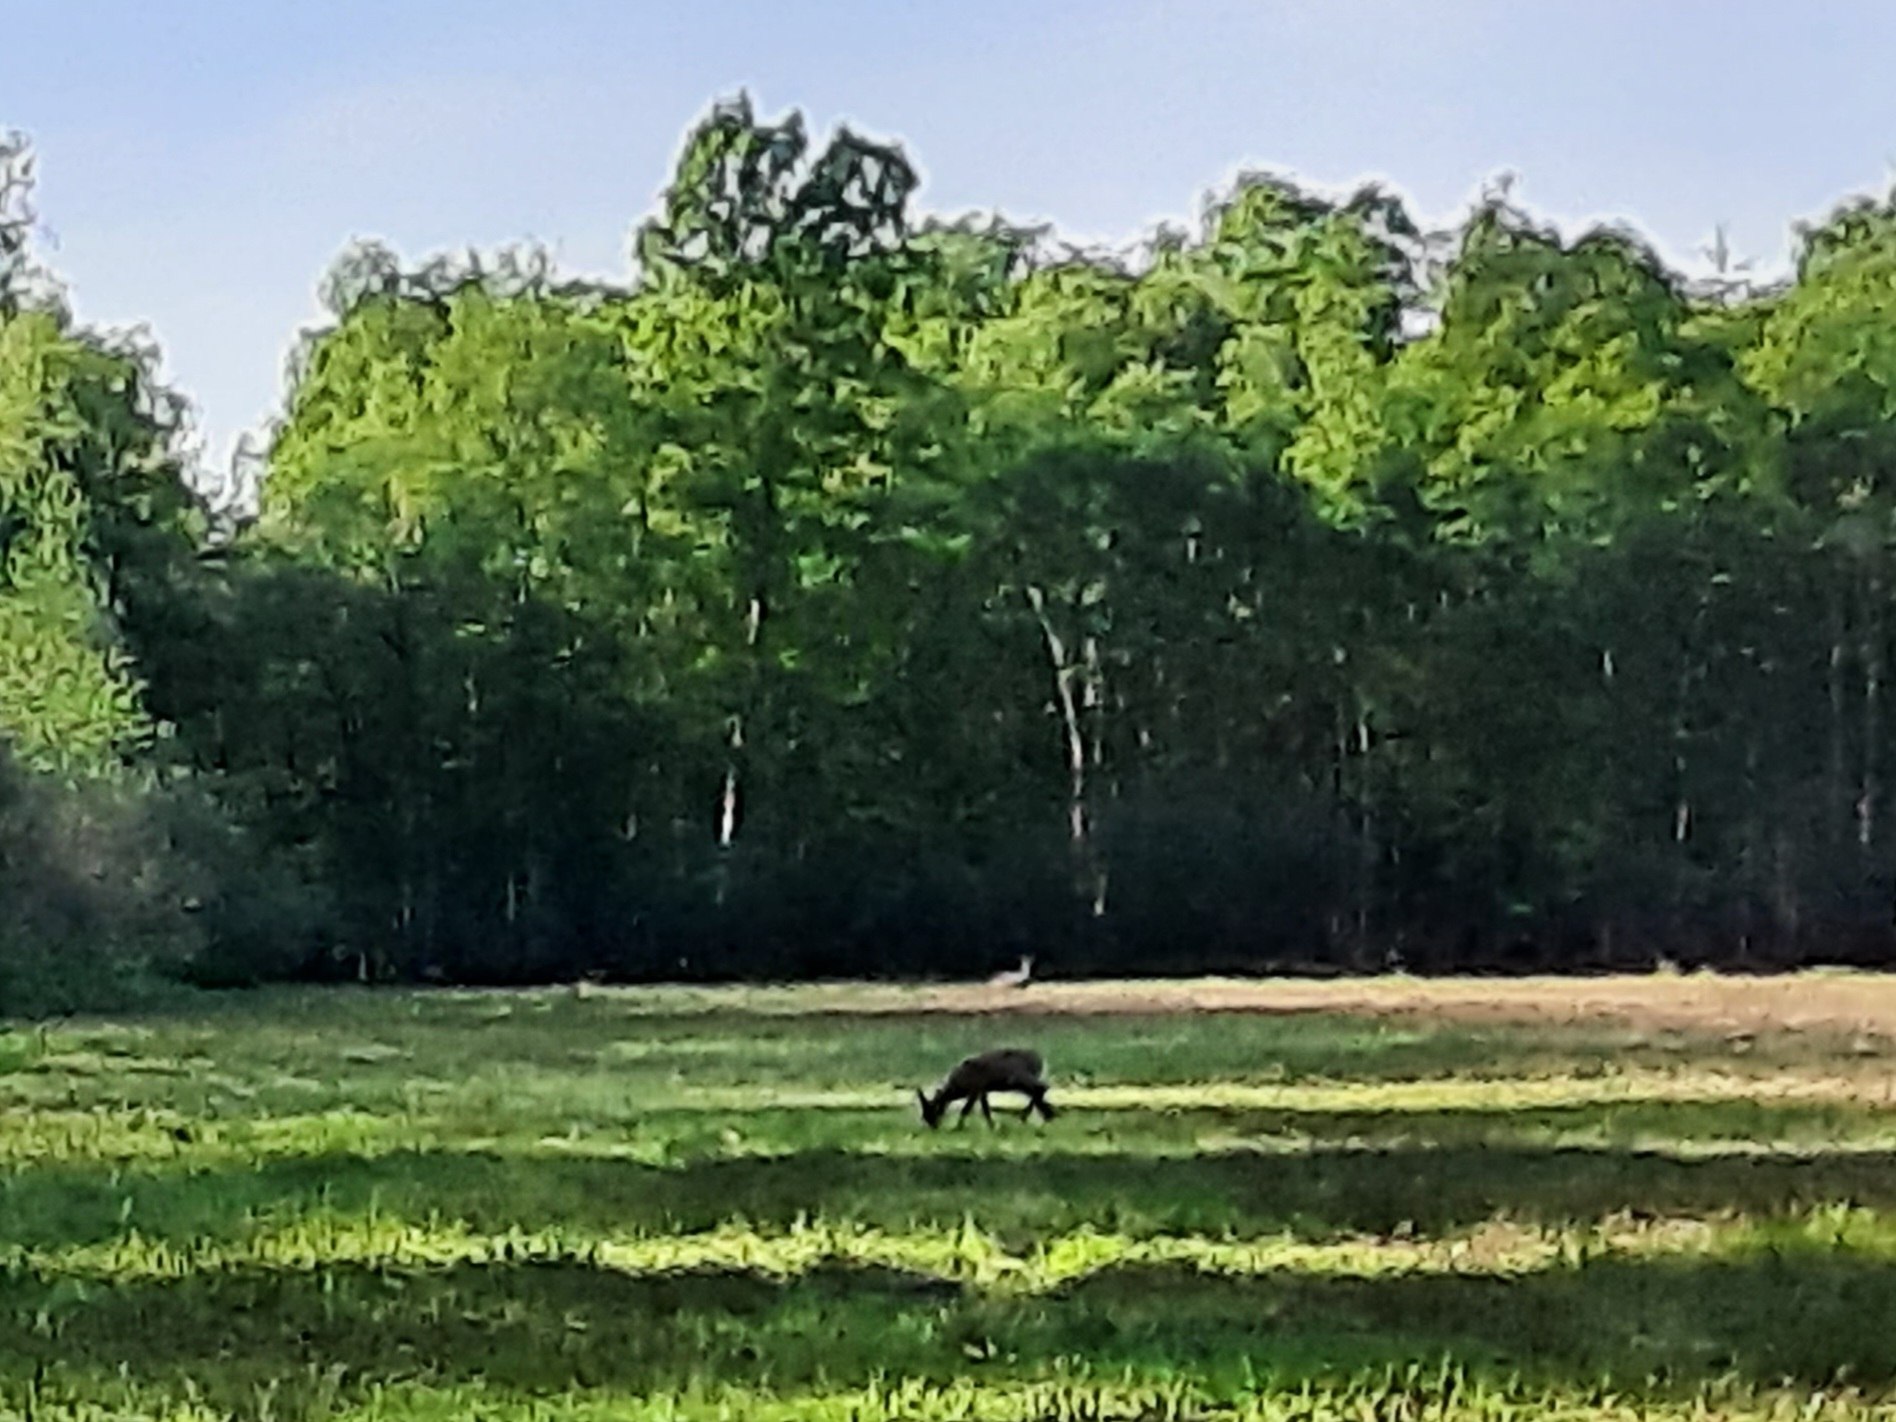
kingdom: Animalia
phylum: Chordata
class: Mammalia
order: Artiodactyla
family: Cervidae
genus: Capreolus
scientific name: Capreolus capreolus
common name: Rådyr
